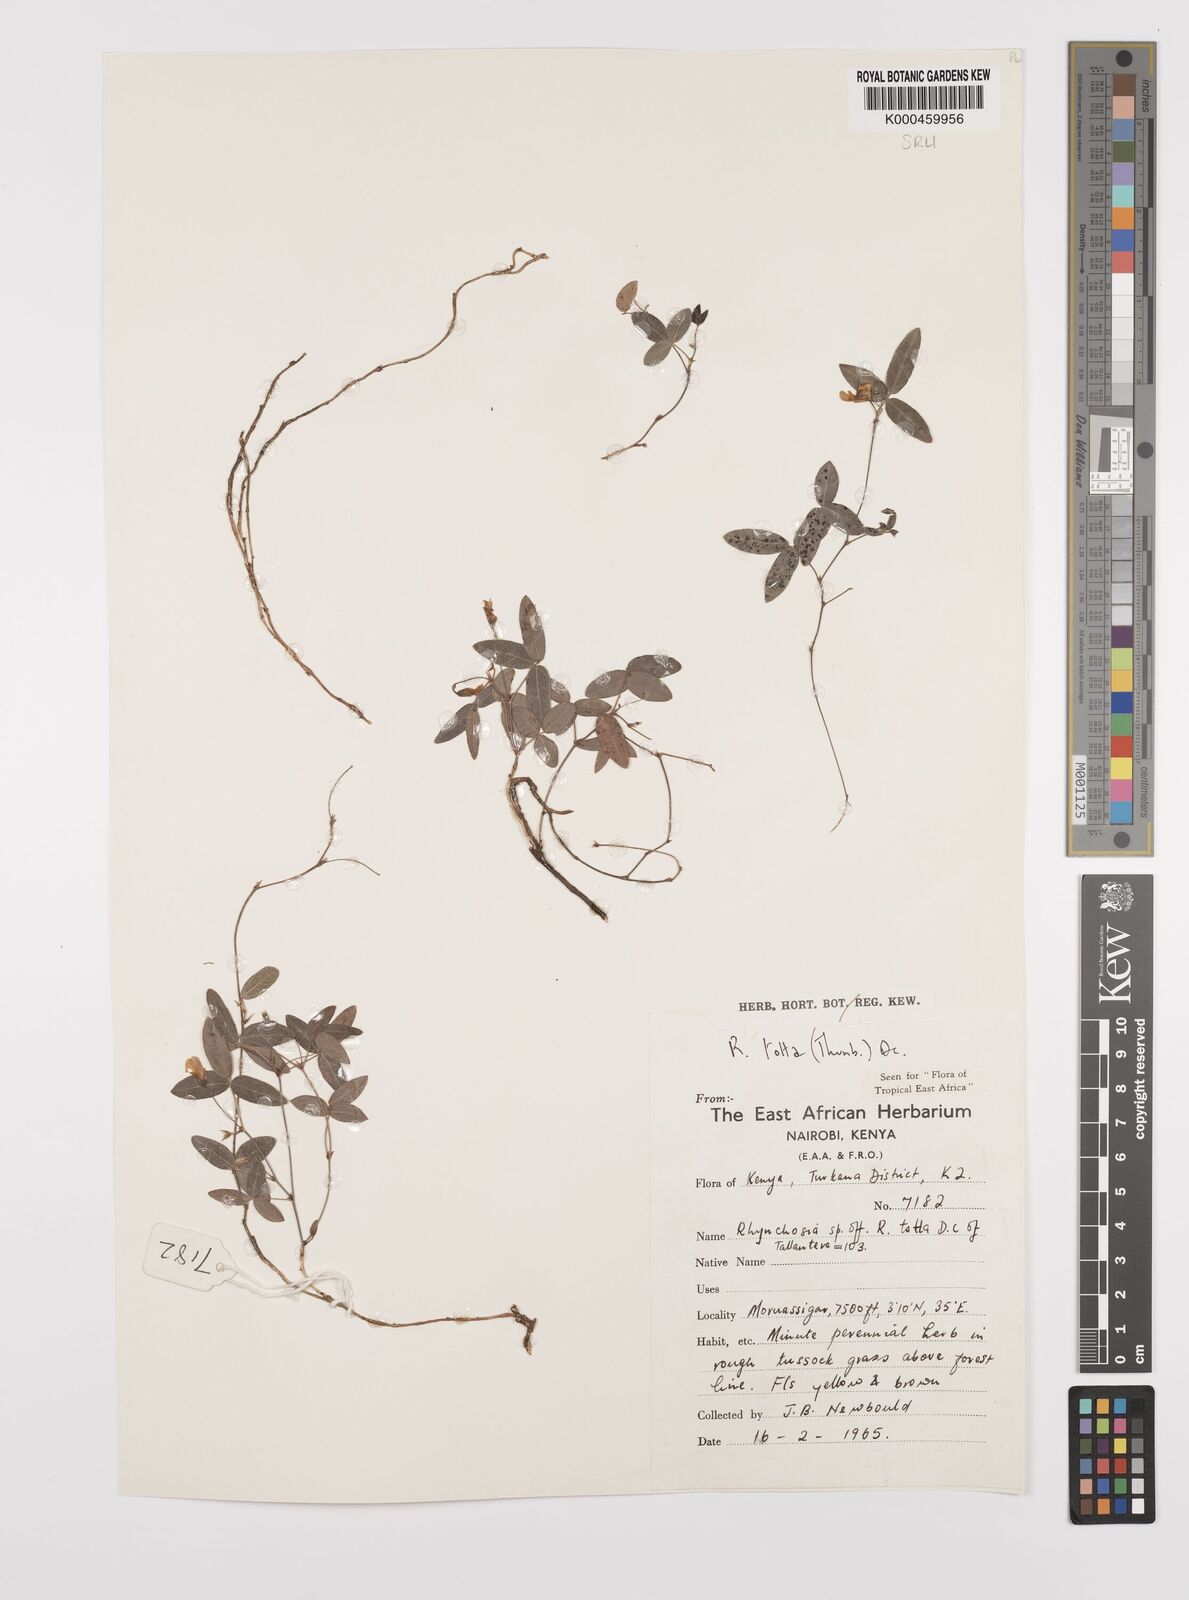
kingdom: Plantae
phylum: Tracheophyta
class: Magnoliopsida
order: Fabales
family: Fabaceae
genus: Rhynchosia
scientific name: Rhynchosia totta
